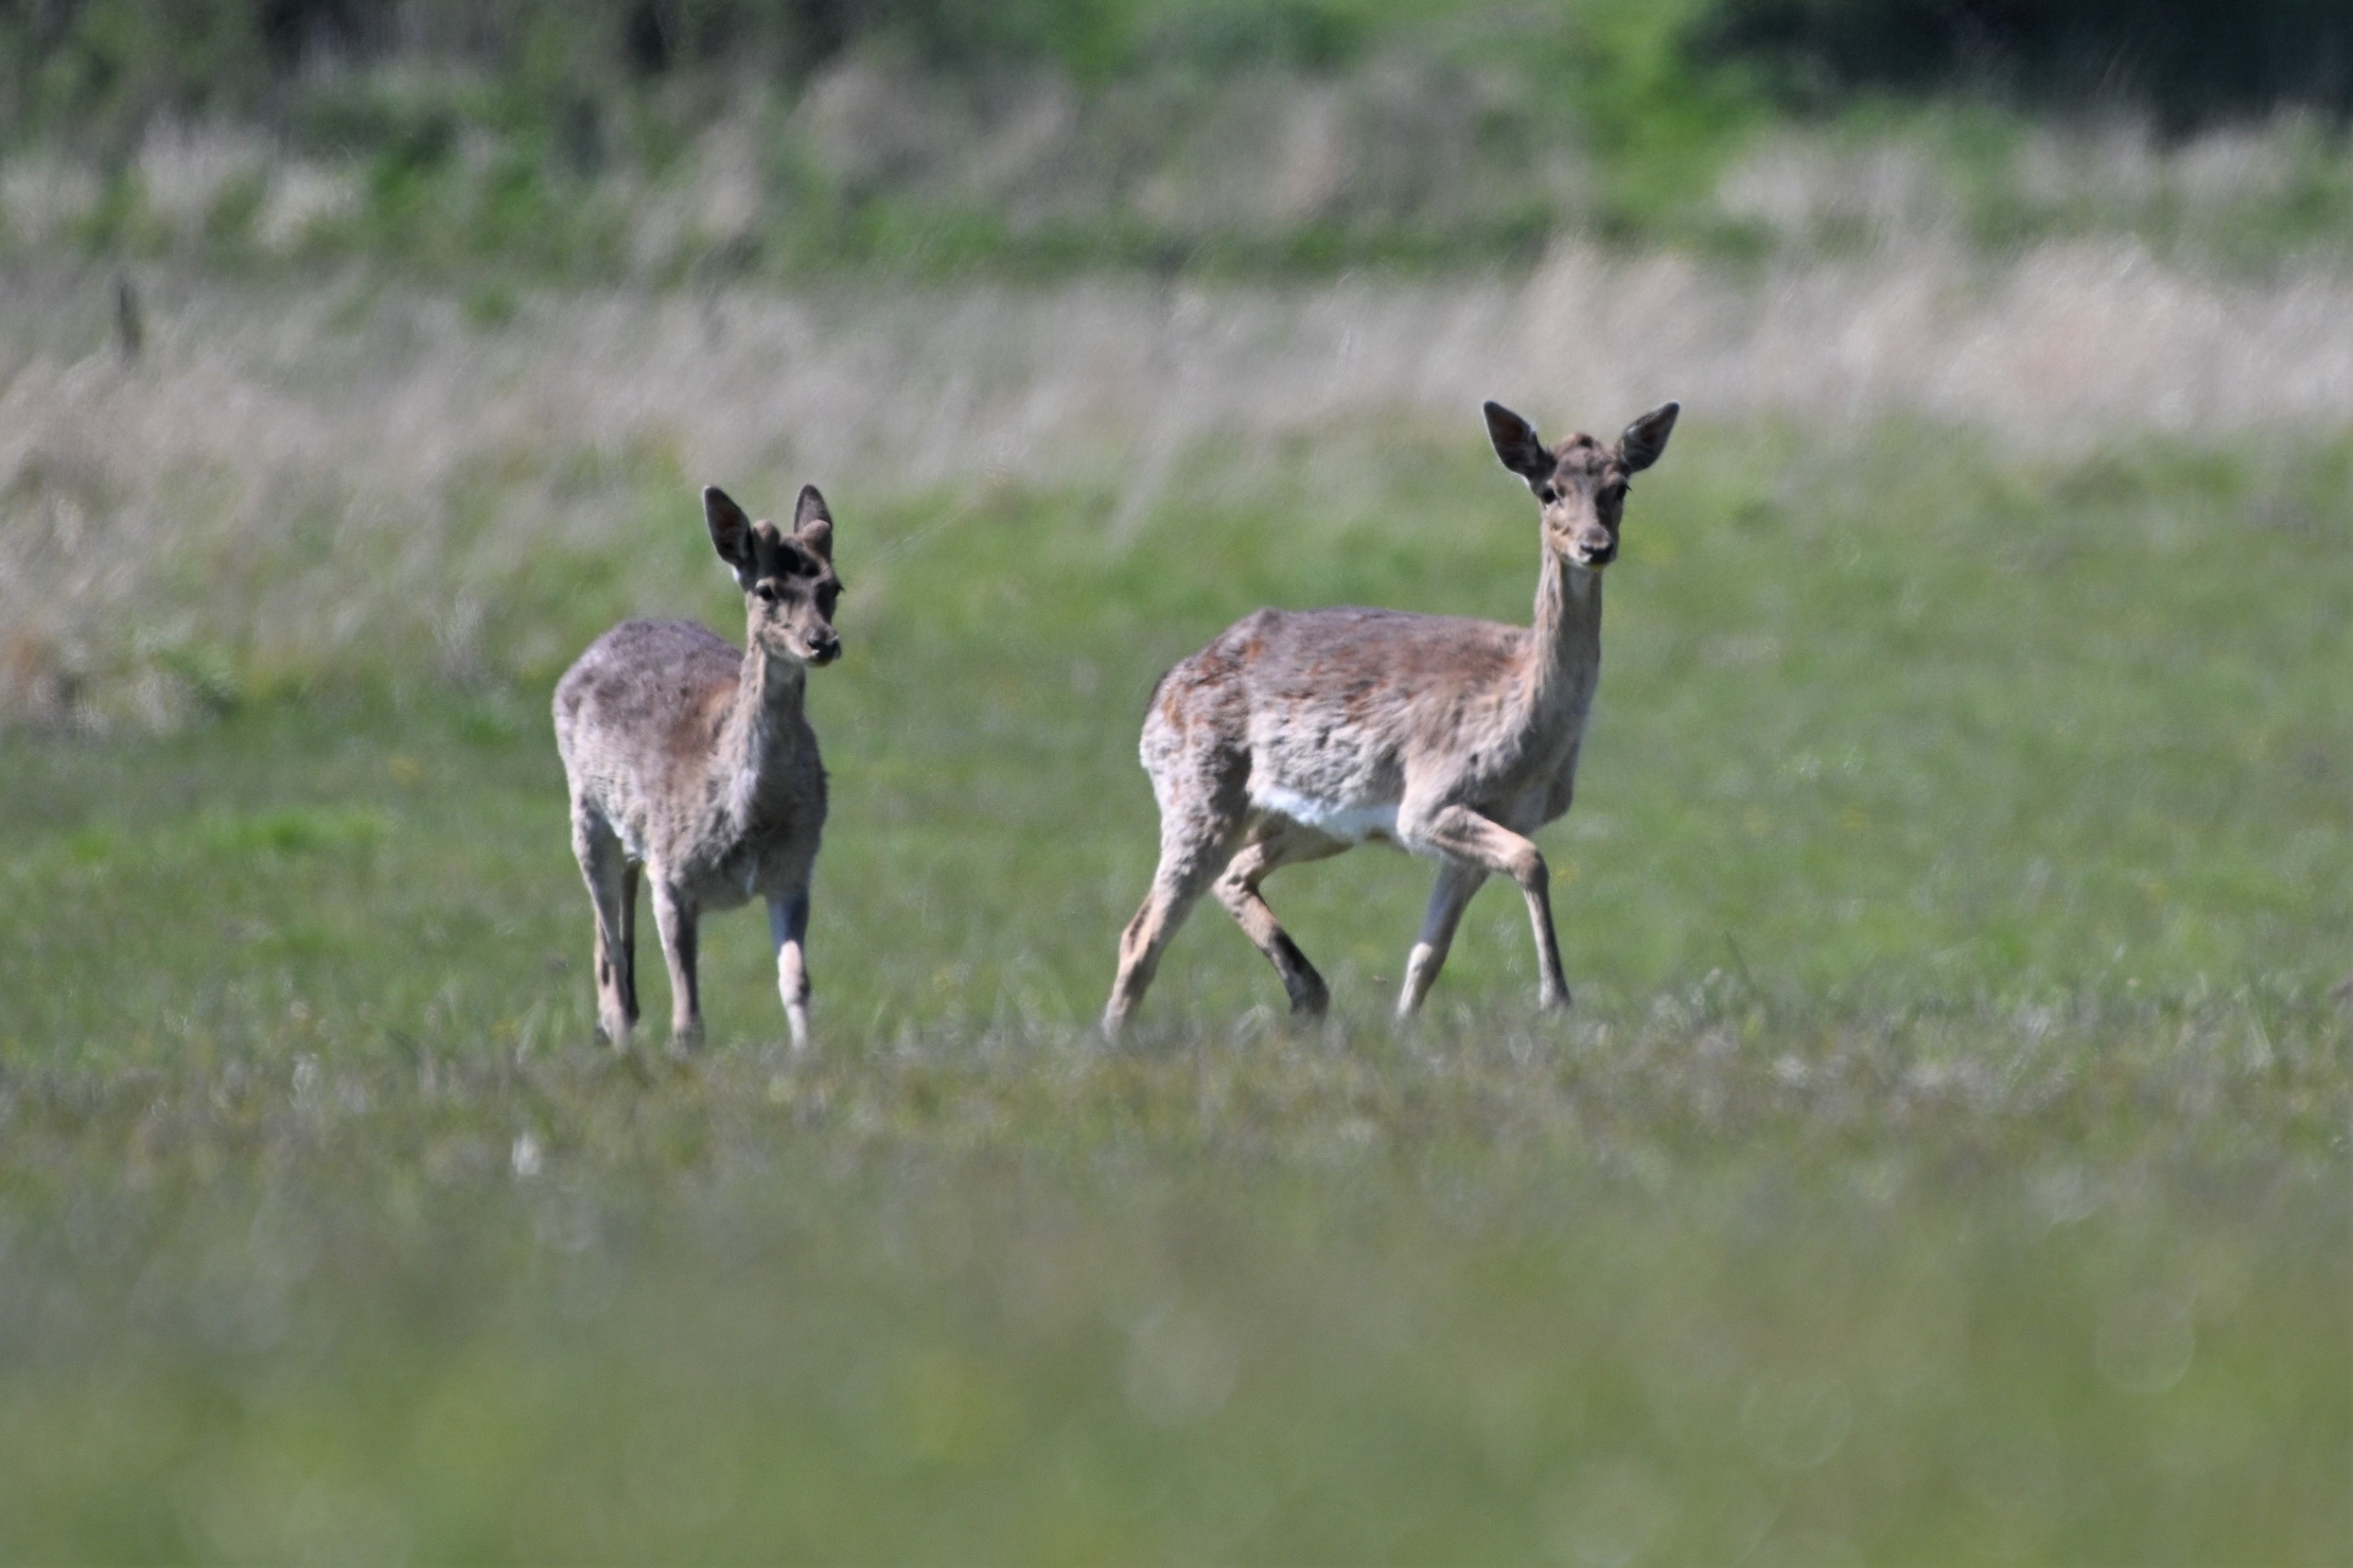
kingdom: Animalia
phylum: Chordata
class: Mammalia
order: Artiodactyla
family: Cervidae
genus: Capreolus
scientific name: Capreolus capreolus
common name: Rådyr
